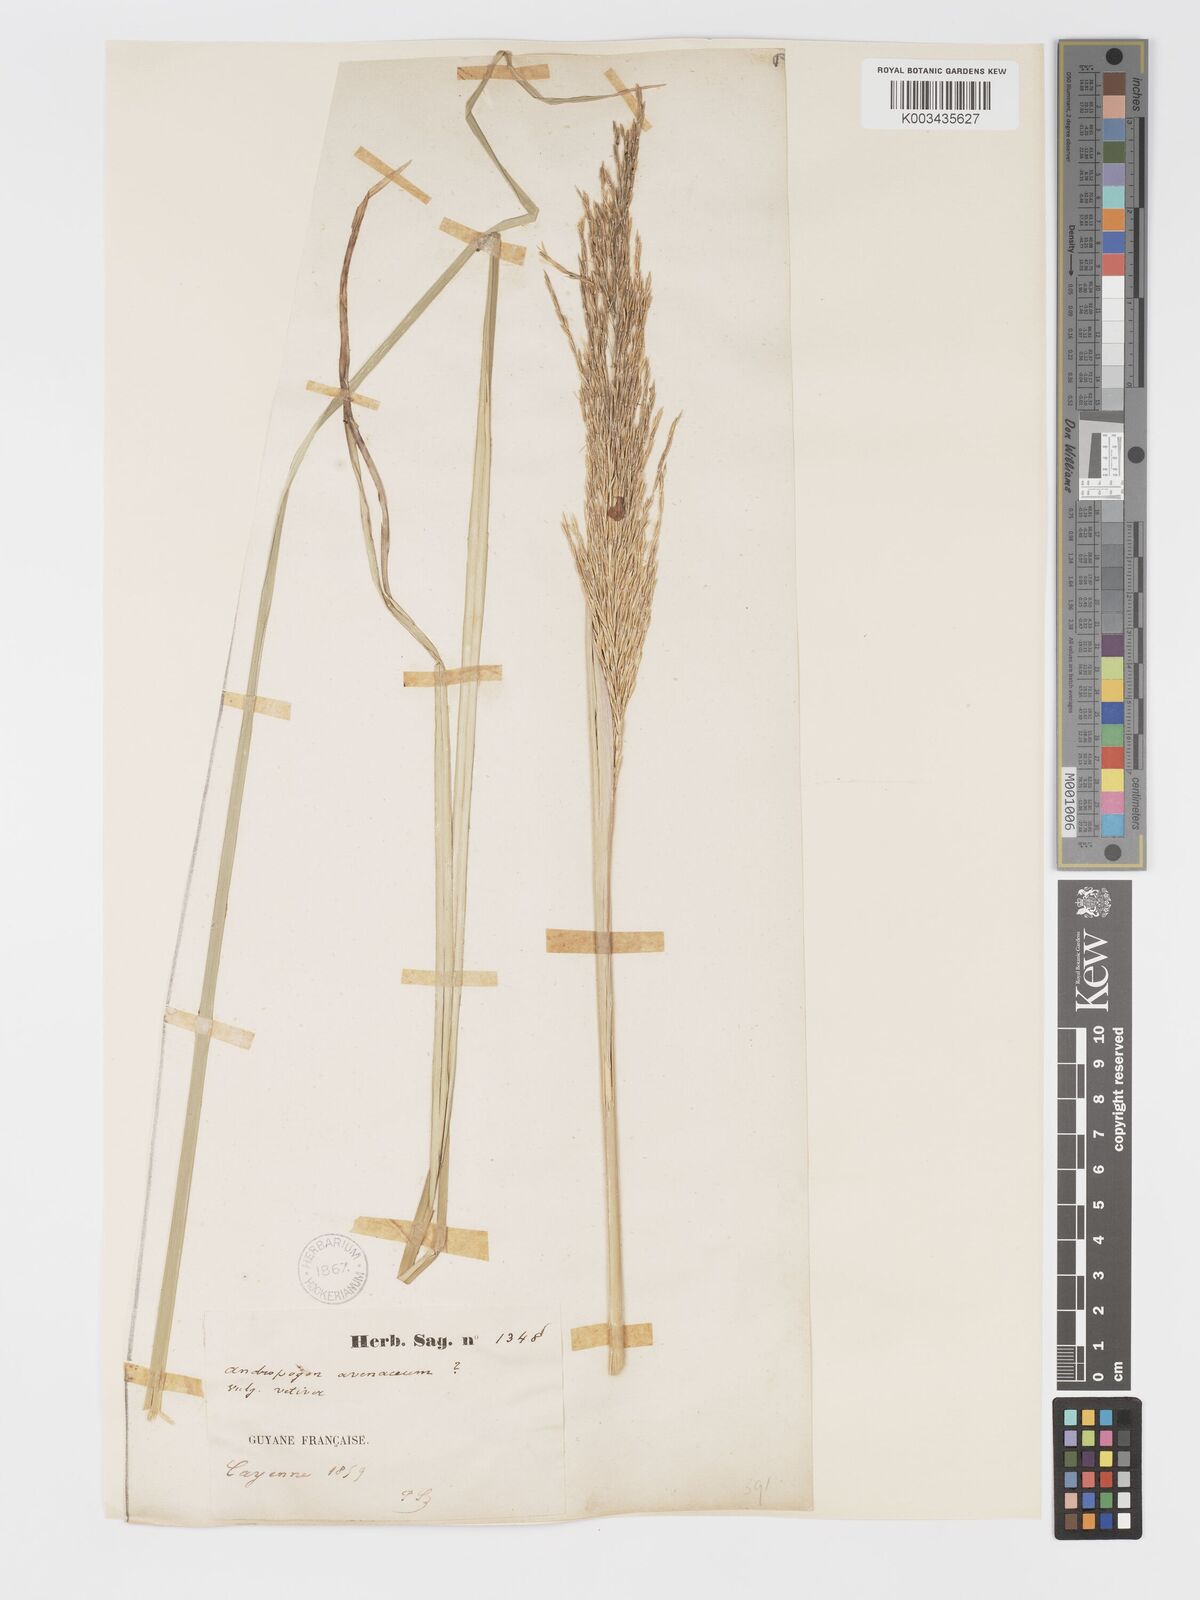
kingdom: Plantae
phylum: Tracheophyta
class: Liliopsida
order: Poales
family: Poaceae
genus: Chrysopogon
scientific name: Chrysopogon zizanioides
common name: False beardgrass
